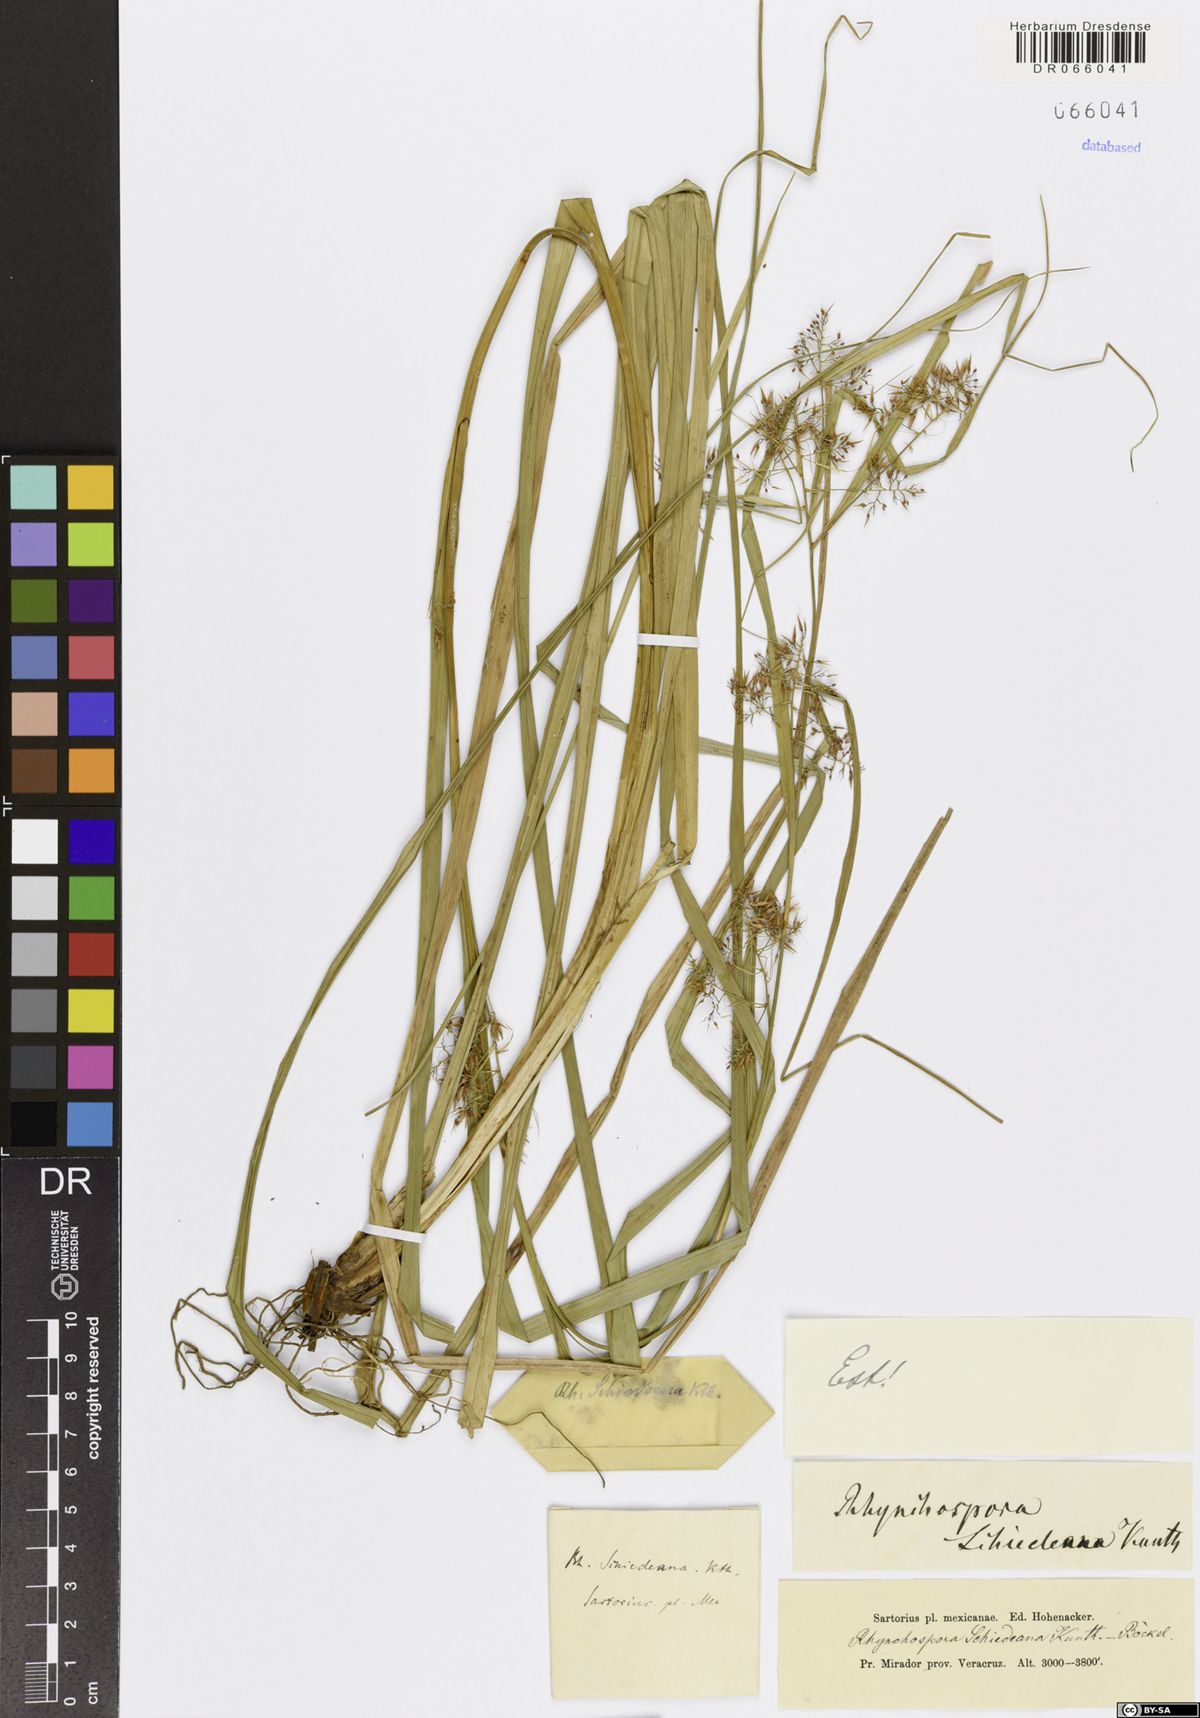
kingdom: Plantae
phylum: Tracheophyta
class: Liliopsida
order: Poales
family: Cyperaceae
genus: Rhynchospora
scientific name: Rhynchospora schiedeana
